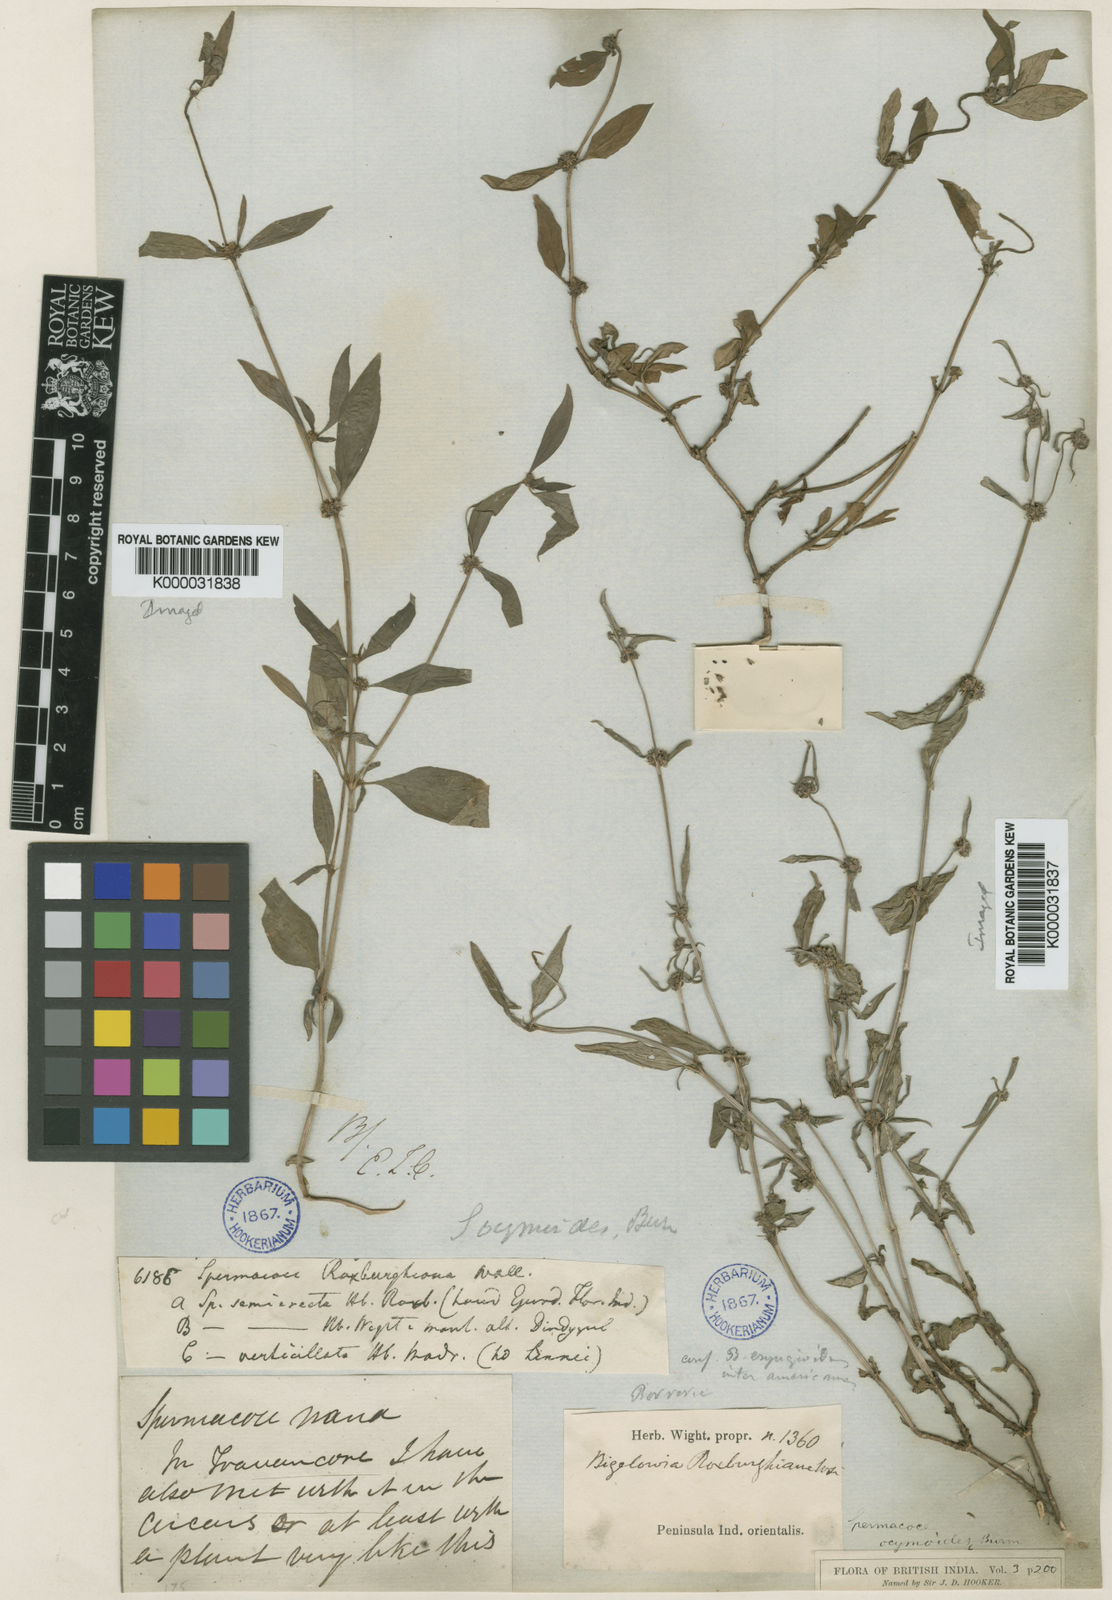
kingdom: Plantae
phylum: Tracheophyta
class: Magnoliopsida
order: Gentianales
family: Rubiaceae
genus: Spermacoce
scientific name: Spermacoce
